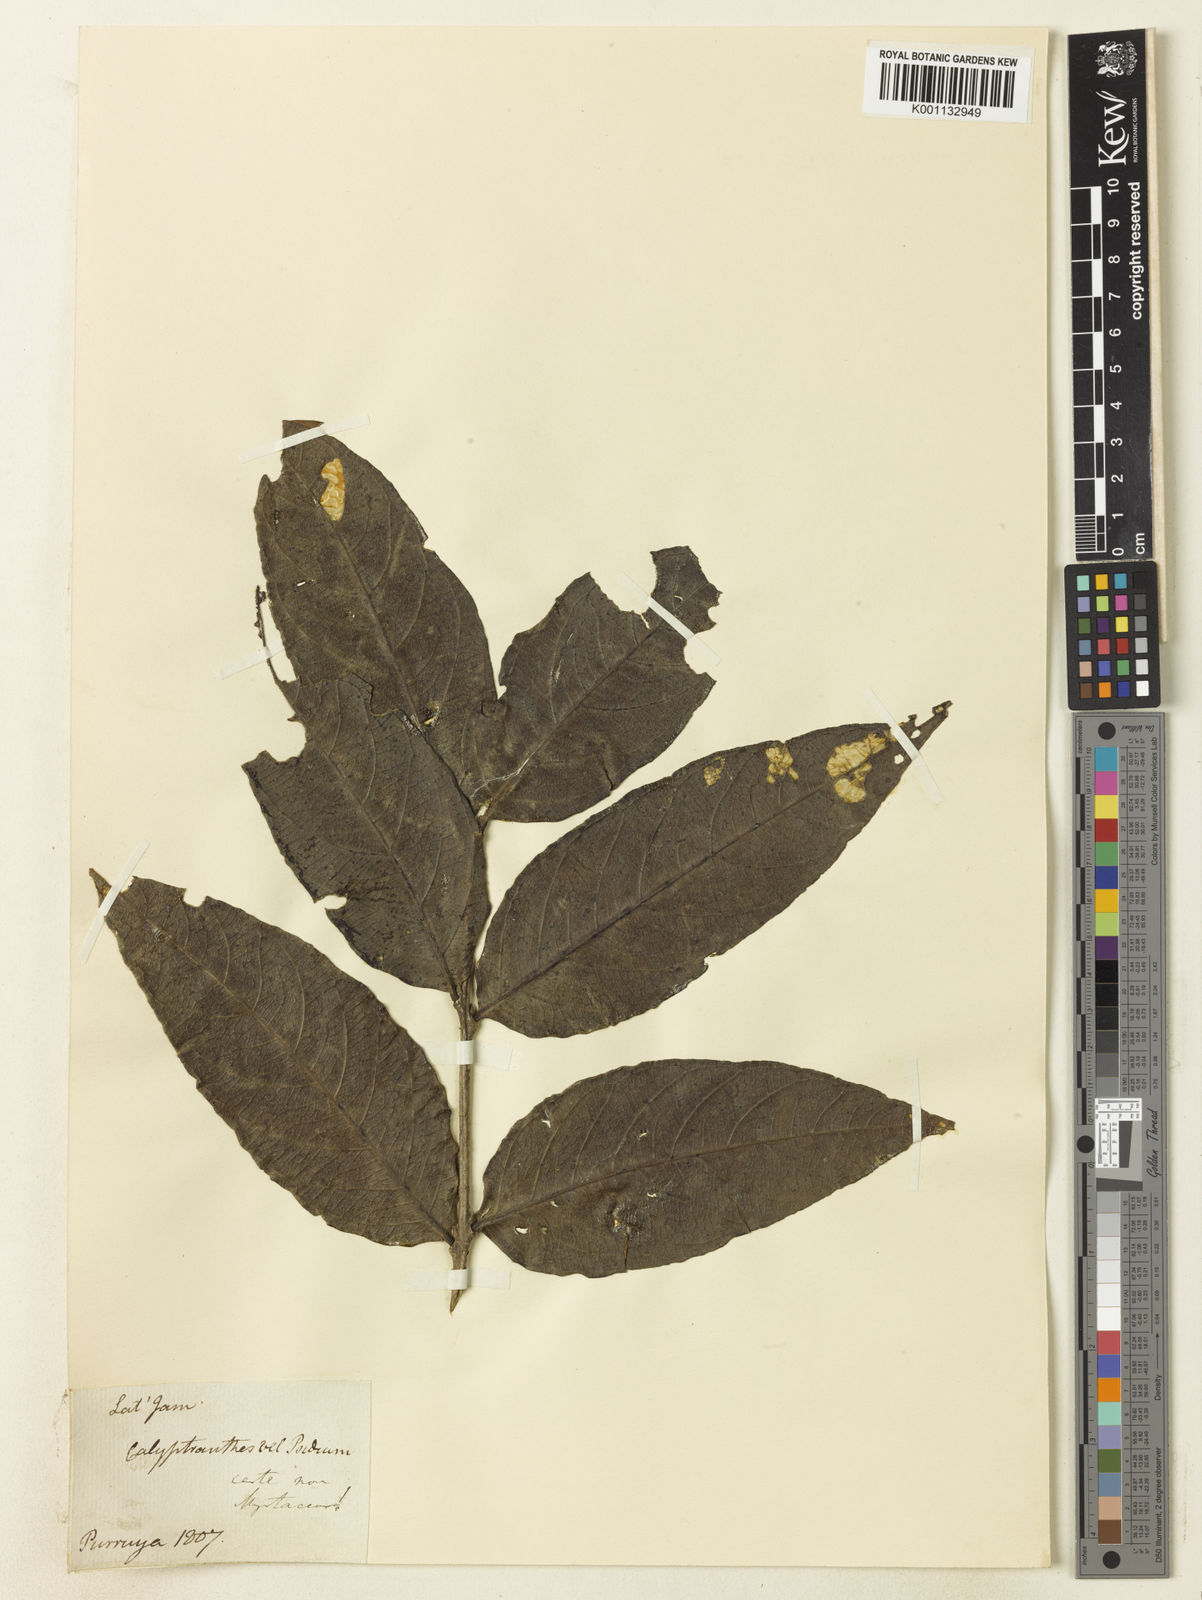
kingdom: Plantae
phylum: Tracheophyta
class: Magnoliopsida
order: Myrtales
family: Myrtaceae
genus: Calyptranthes
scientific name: Calyptranthes
